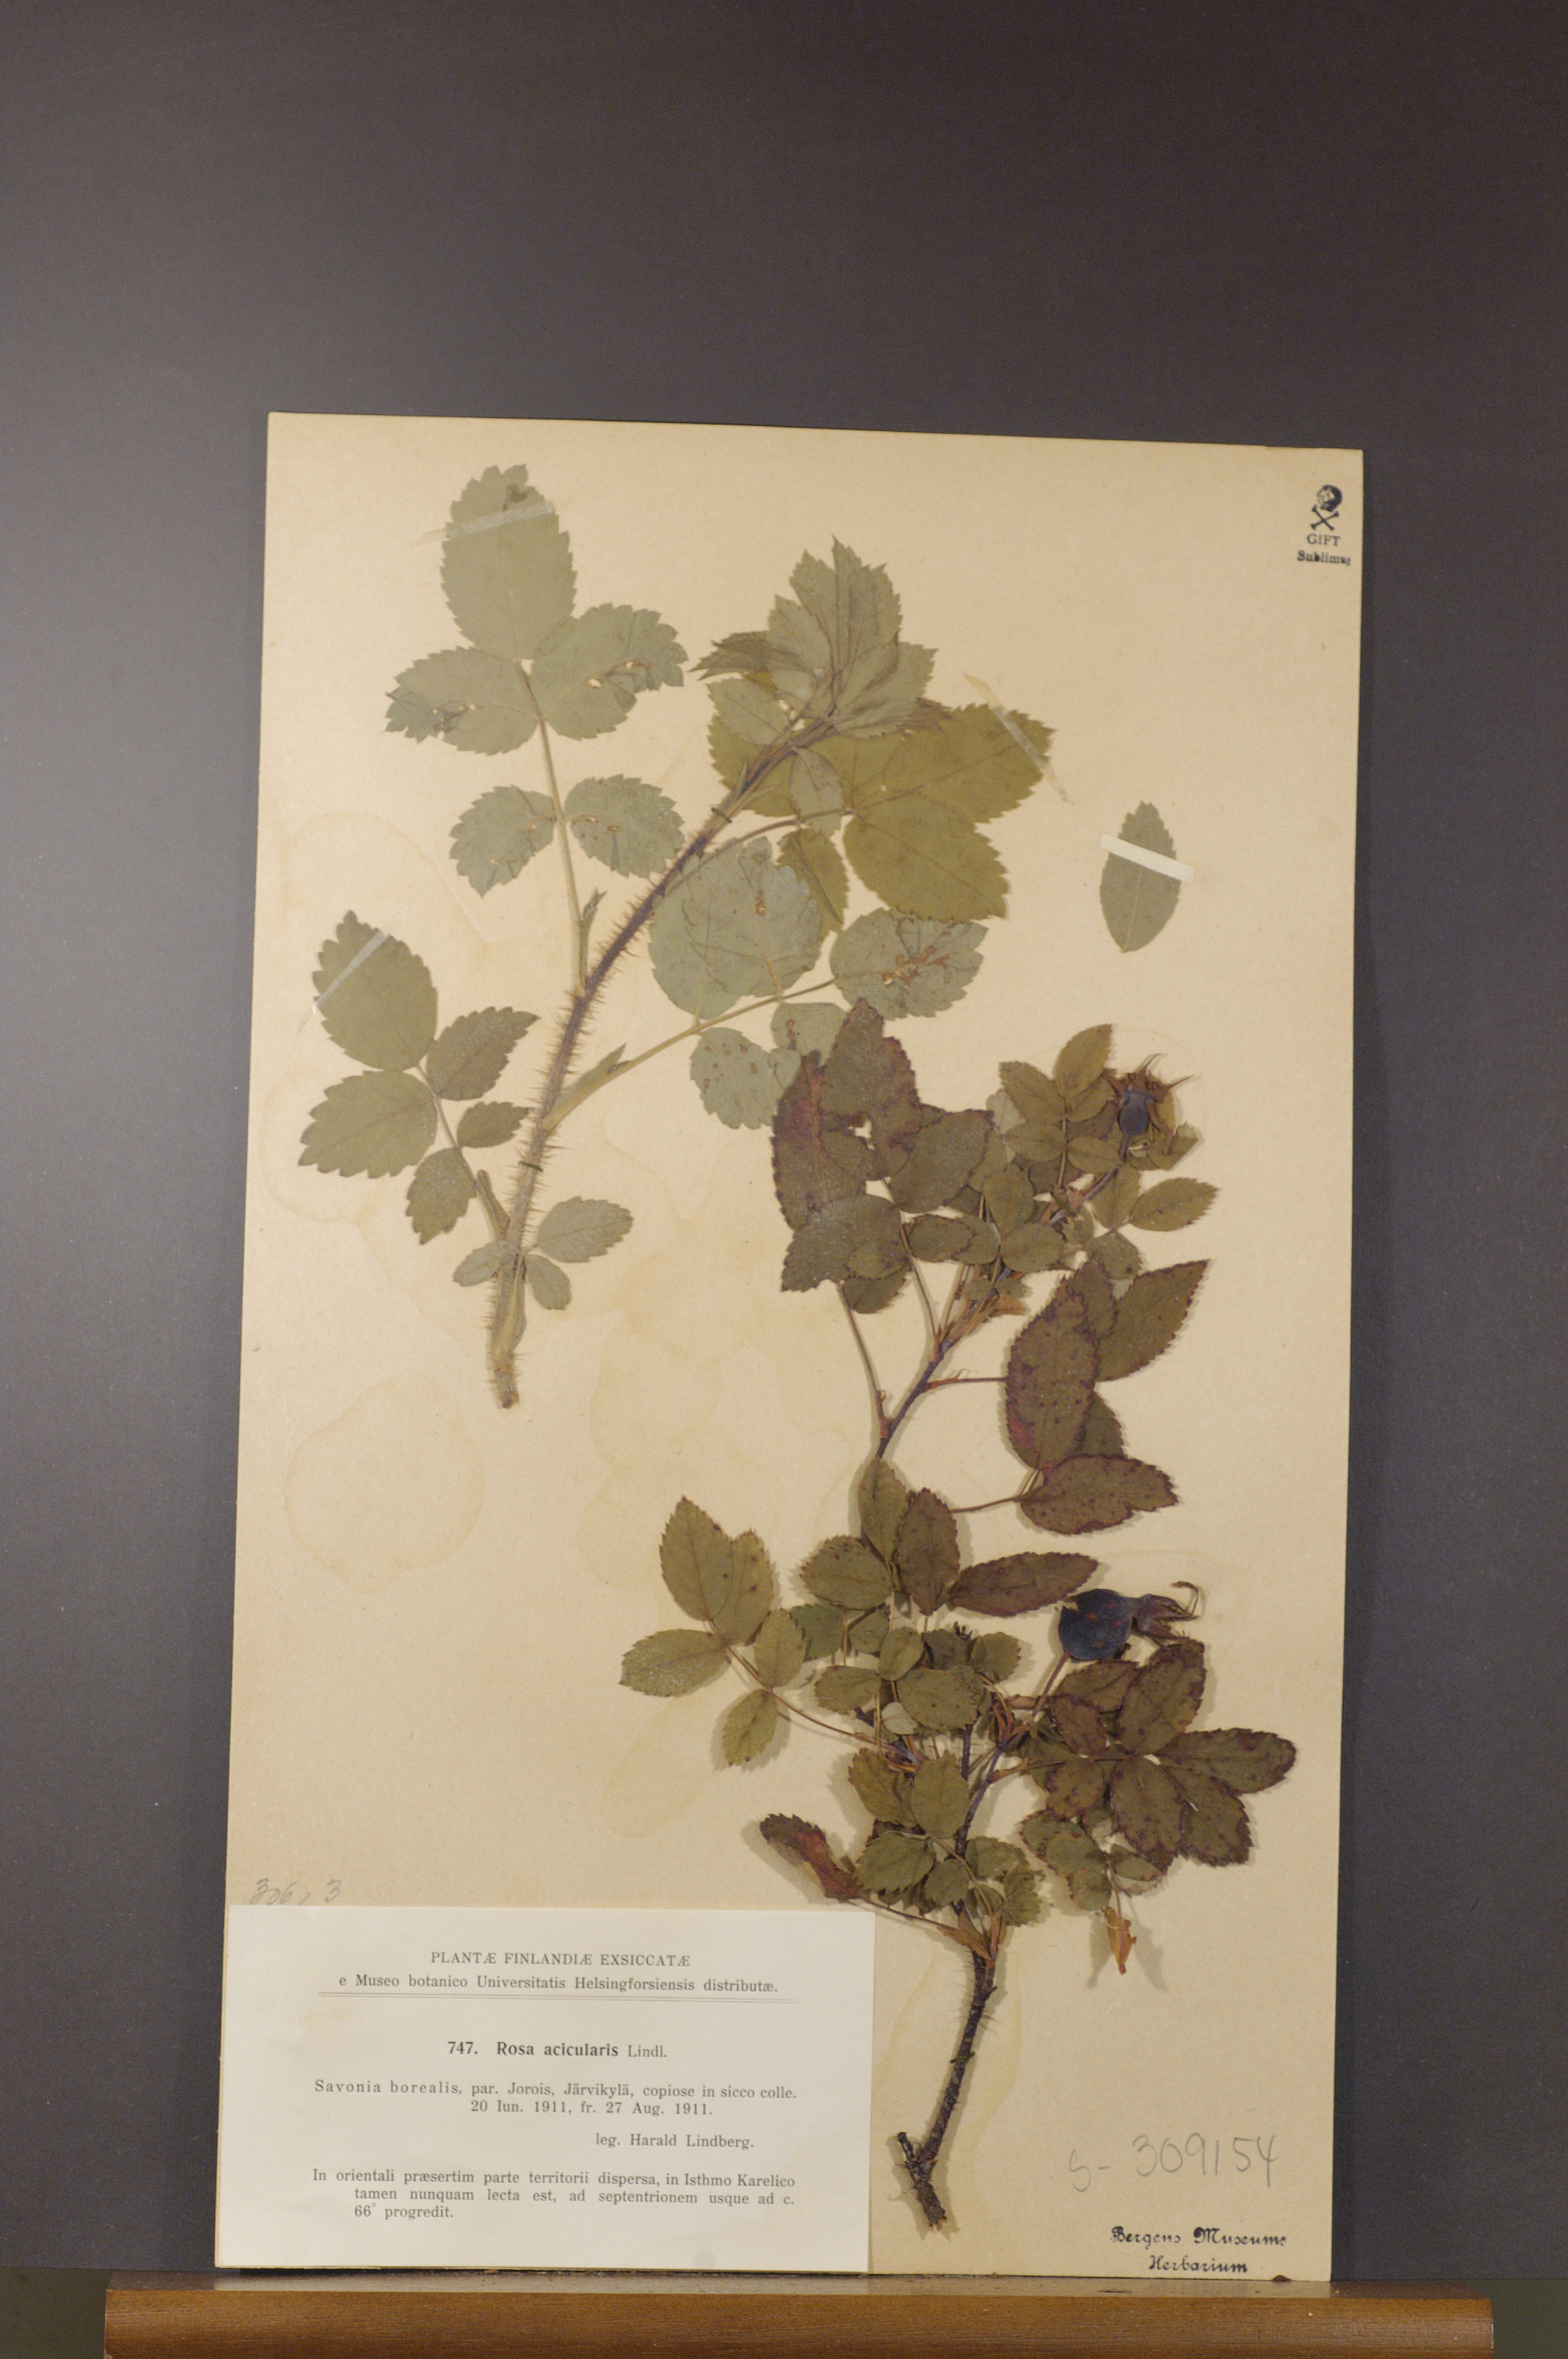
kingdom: Plantae
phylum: Tracheophyta
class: Magnoliopsida
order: Rosales
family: Rosaceae
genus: Rosa
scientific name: Rosa acicularis
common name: Prickly rose
